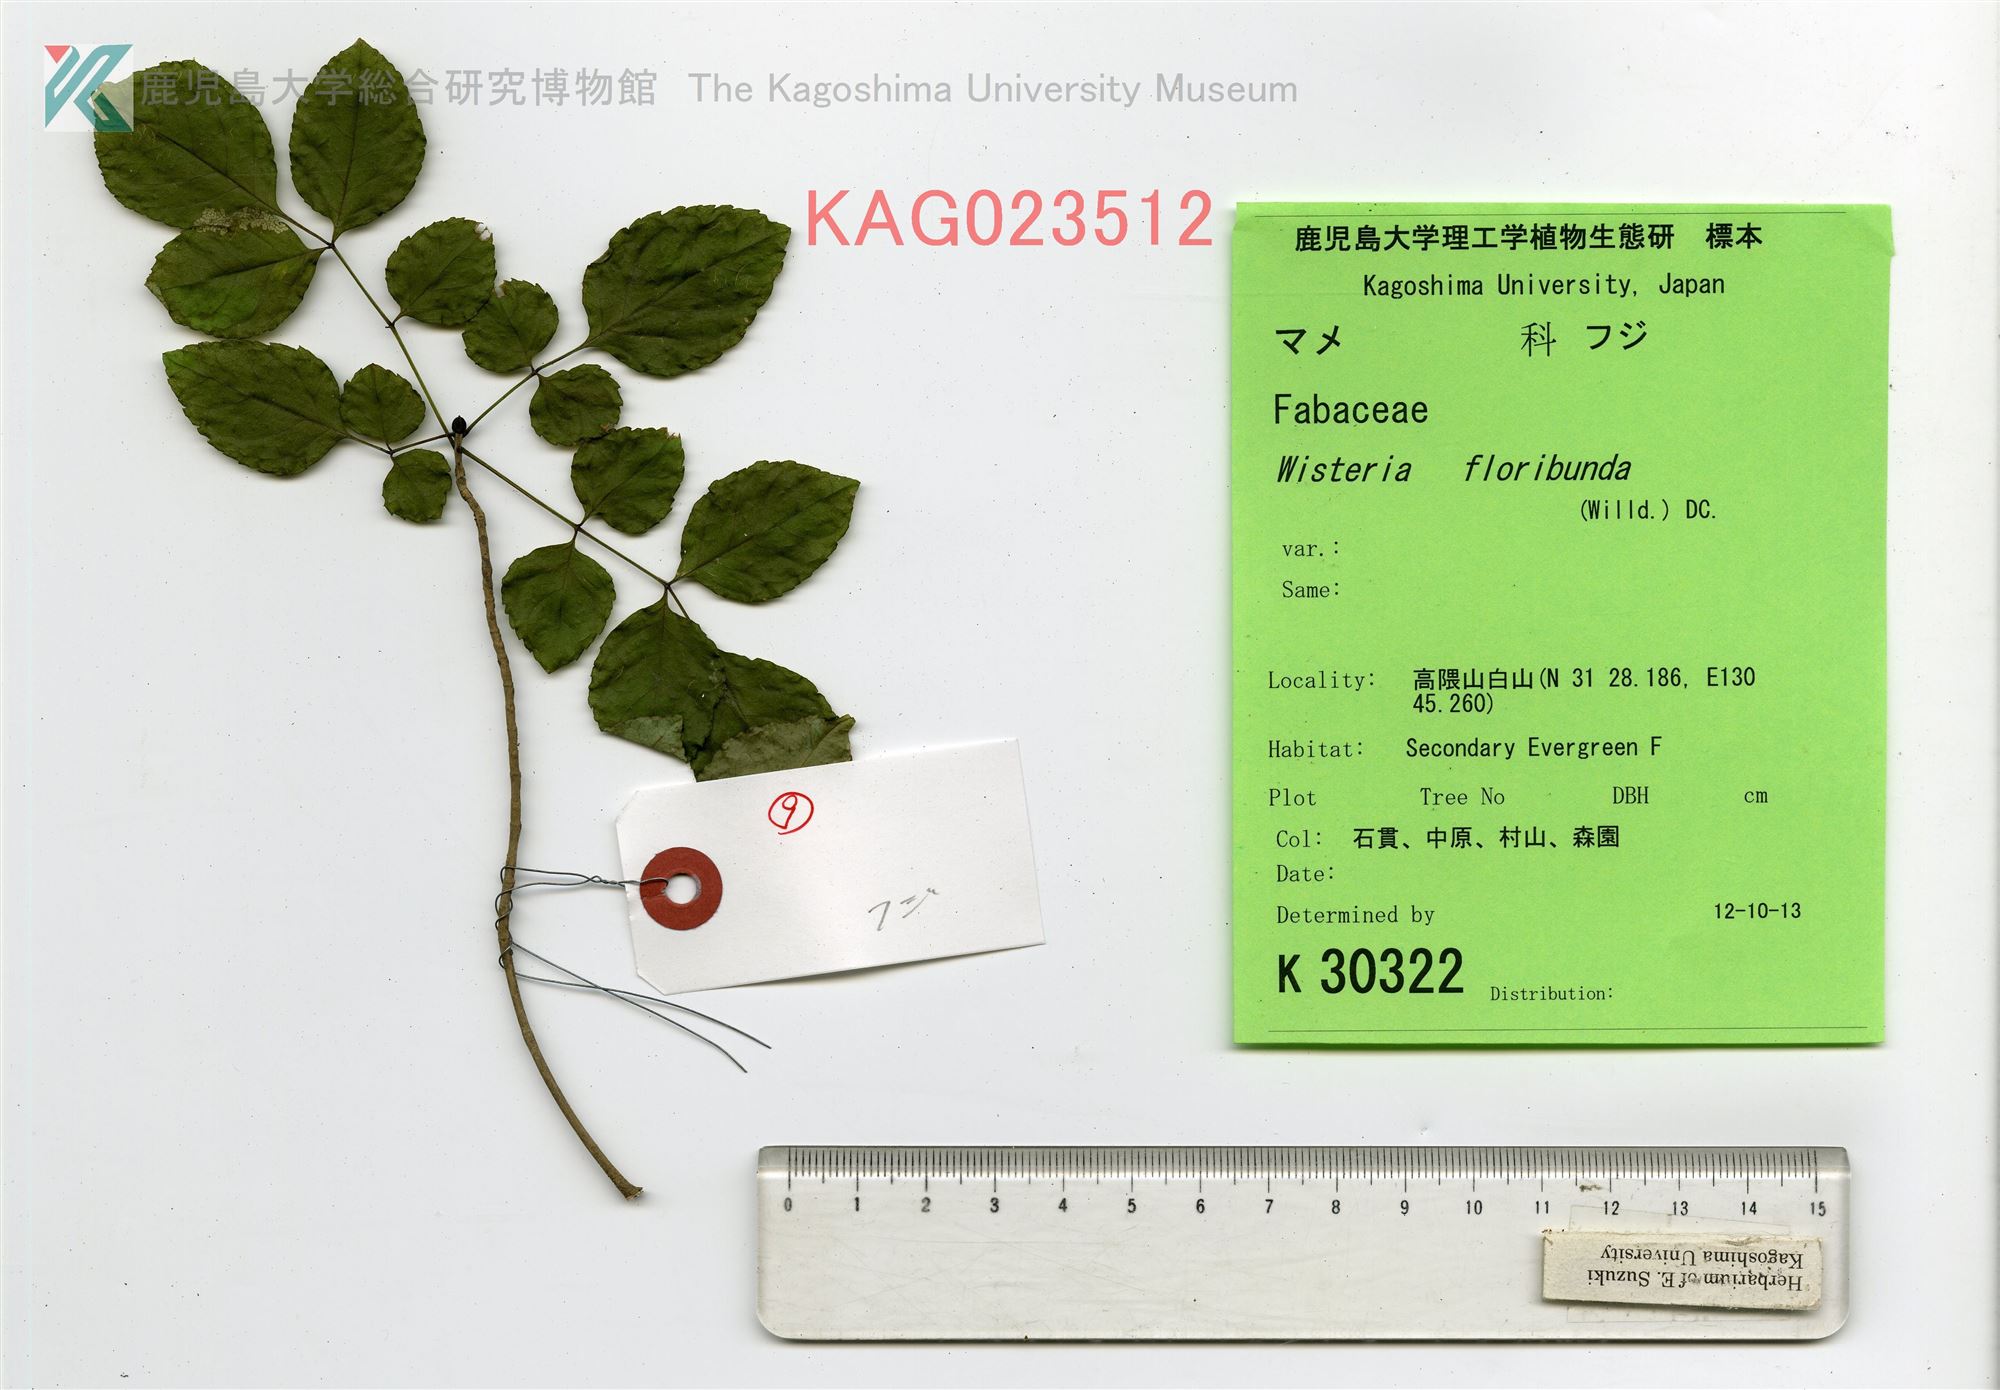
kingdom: Plantae
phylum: Tracheophyta
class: Magnoliopsida
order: Lamiales
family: Oleaceae
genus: Fraxinus
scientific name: Fraxinus sieboldiana
